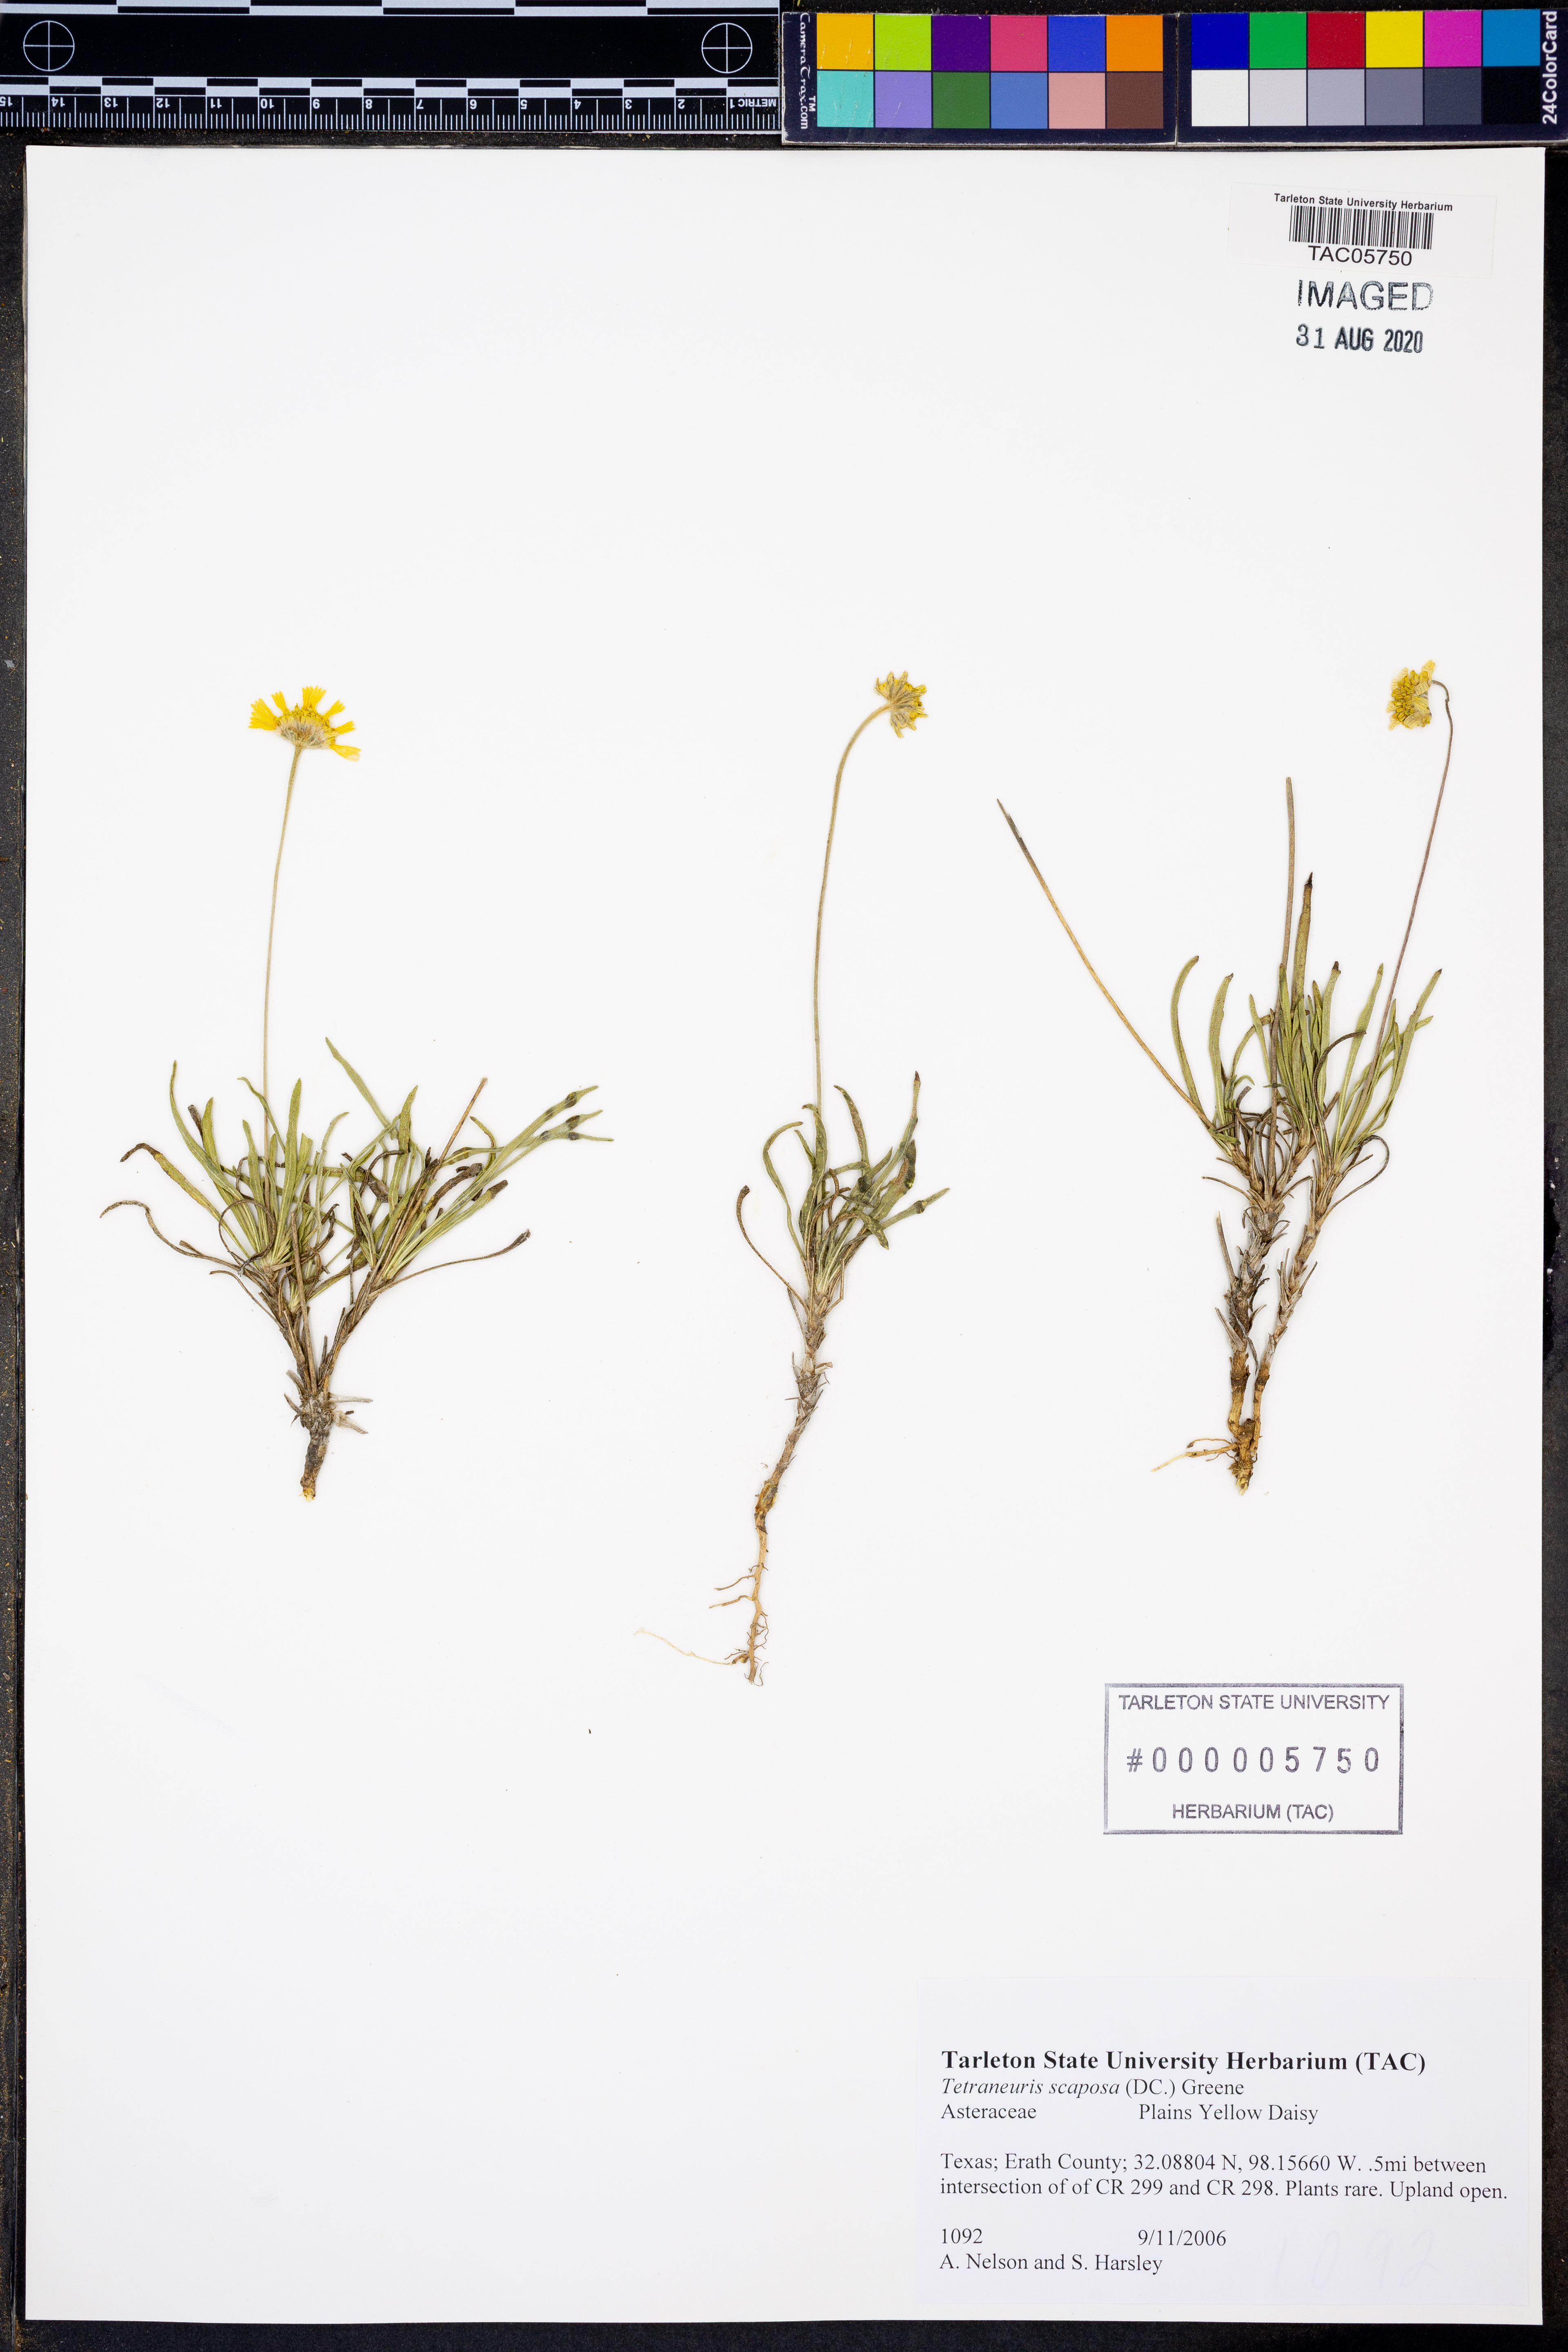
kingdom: Plantae
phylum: Tracheophyta
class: Magnoliopsida
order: Asterales
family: Asteraceae
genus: Tetraneuris
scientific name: Tetraneuris scaposa
